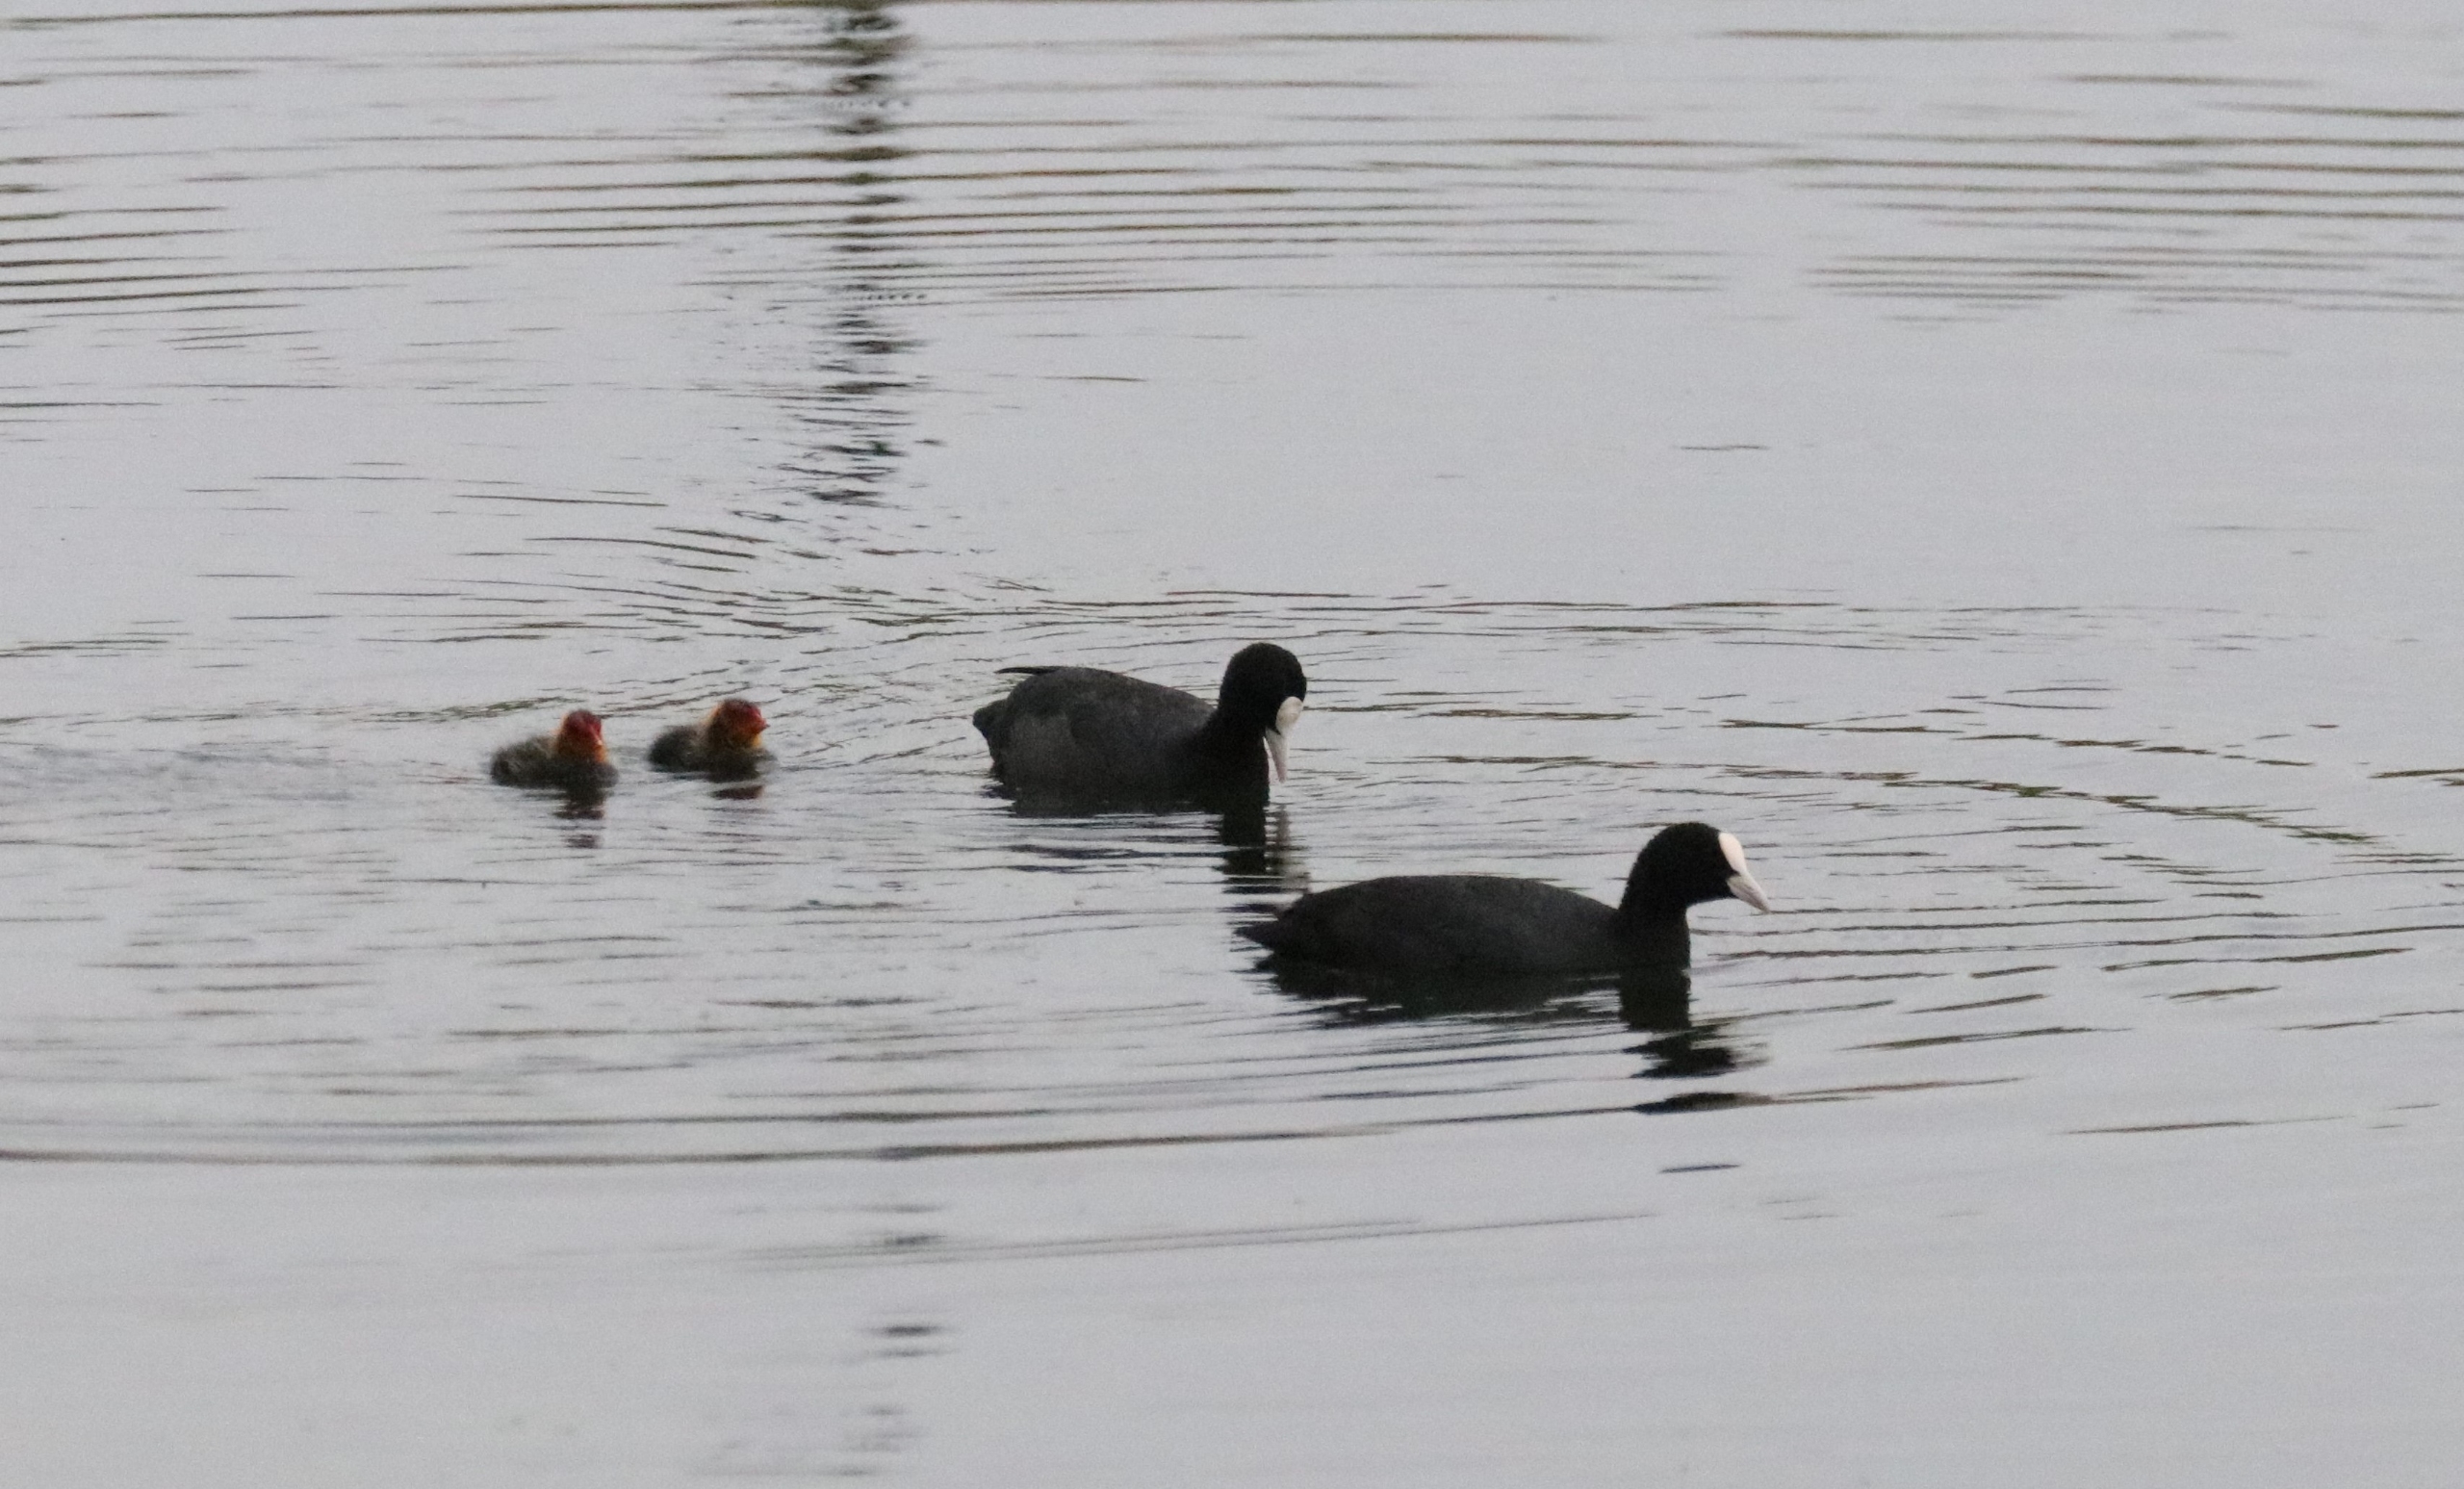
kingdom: Animalia
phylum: Chordata
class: Aves
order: Gruiformes
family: Rallidae
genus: Fulica
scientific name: Fulica atra
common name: Blishøne
